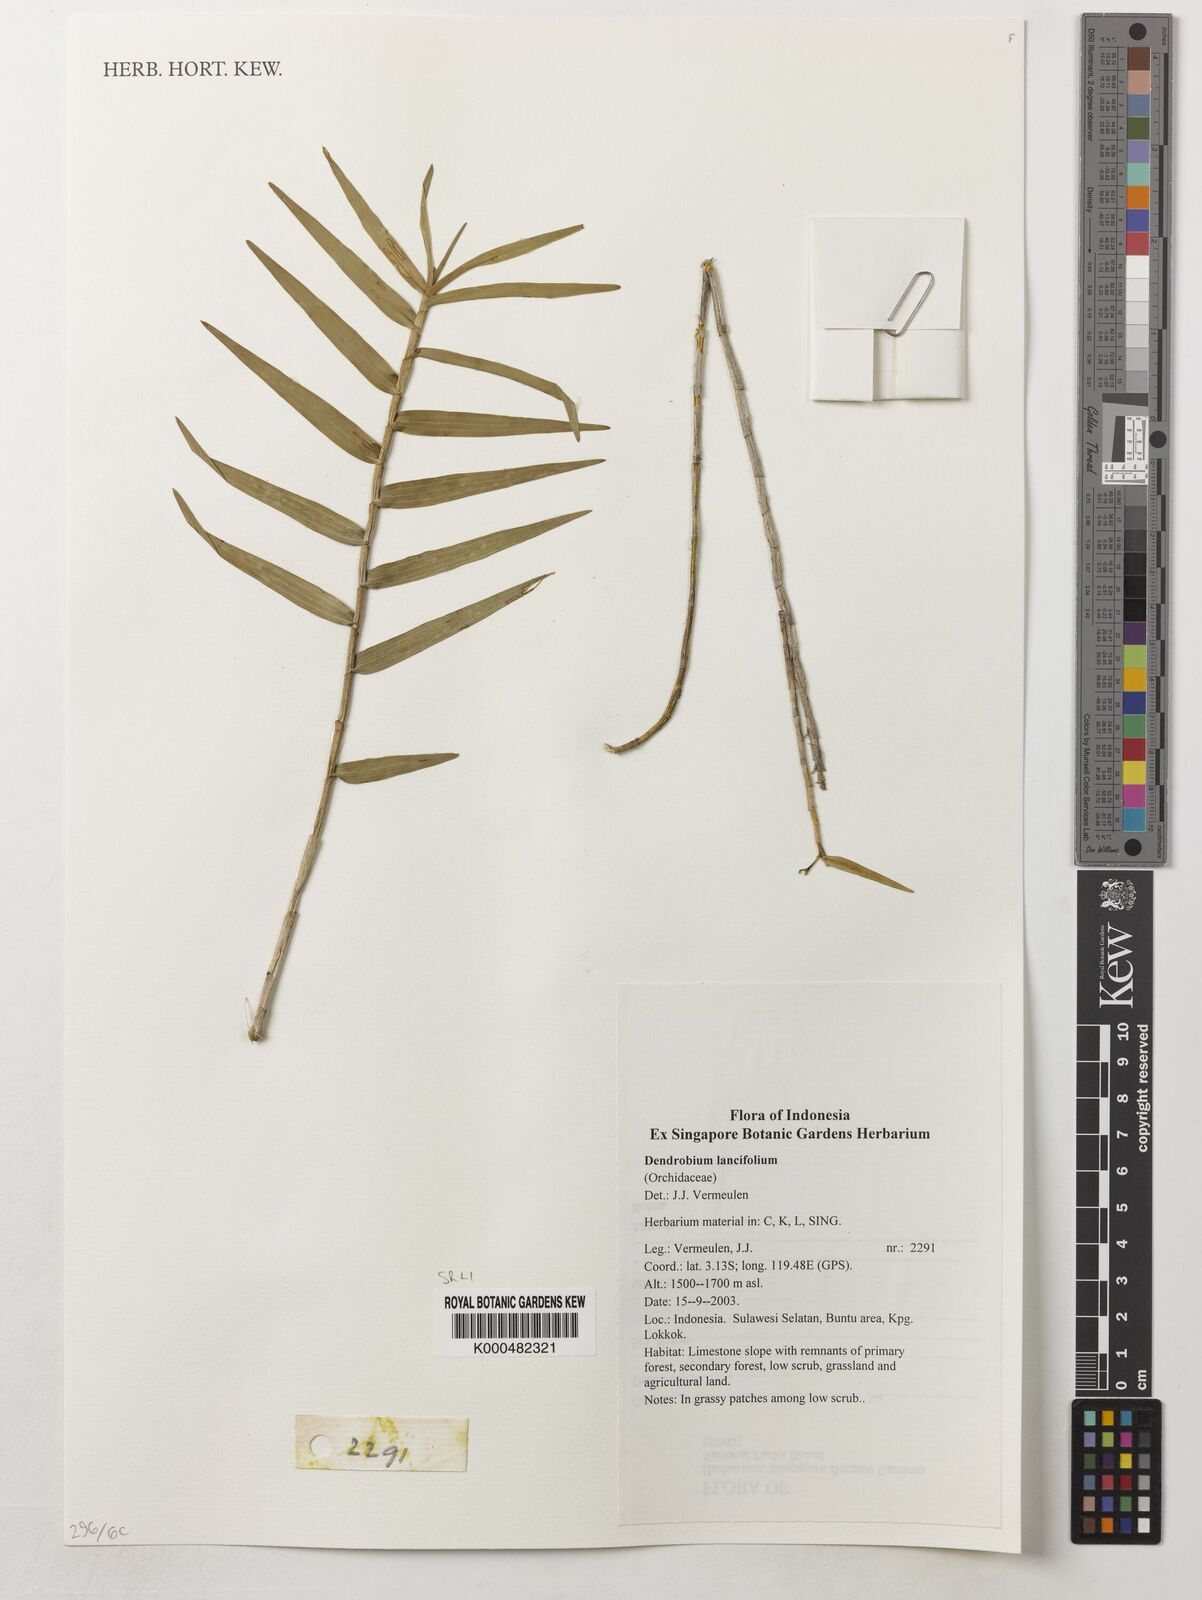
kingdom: Plantae
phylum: Tracheophyta
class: Liliopsida
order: Asparagales
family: Orchidaceae
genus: Dendrobium
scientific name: Dendrobium lanceolatum
